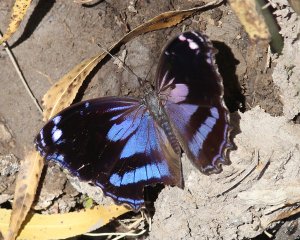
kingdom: Animalia
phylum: Arthropoda
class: Insecta
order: Lepidoptera
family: Nymphalidae
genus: Myscelia
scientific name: Myscelia cyananthe
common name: Blackened Bluewing
